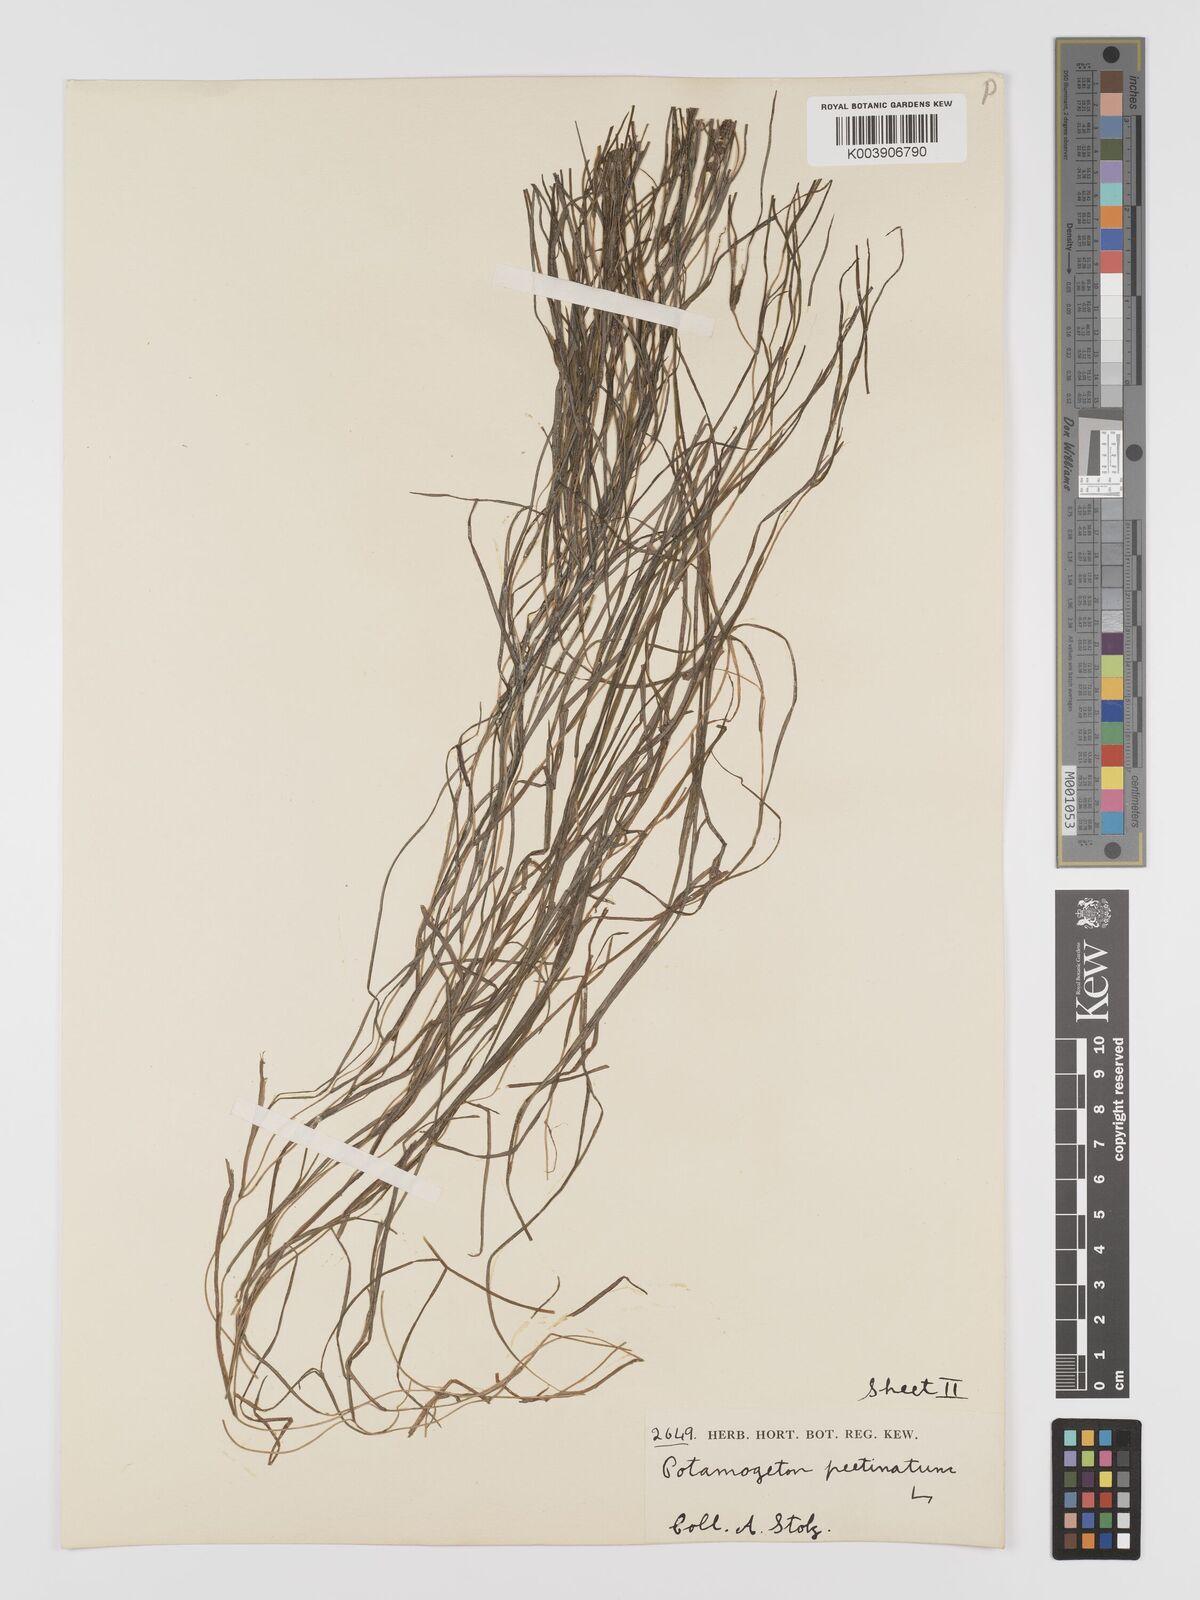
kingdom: Plantae
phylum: Tracheophyta
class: Liliopsida
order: Alismatales
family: Potamogetonaceae
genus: Stuckenia
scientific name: Stuckenia pectinata
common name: Sago pondweed
